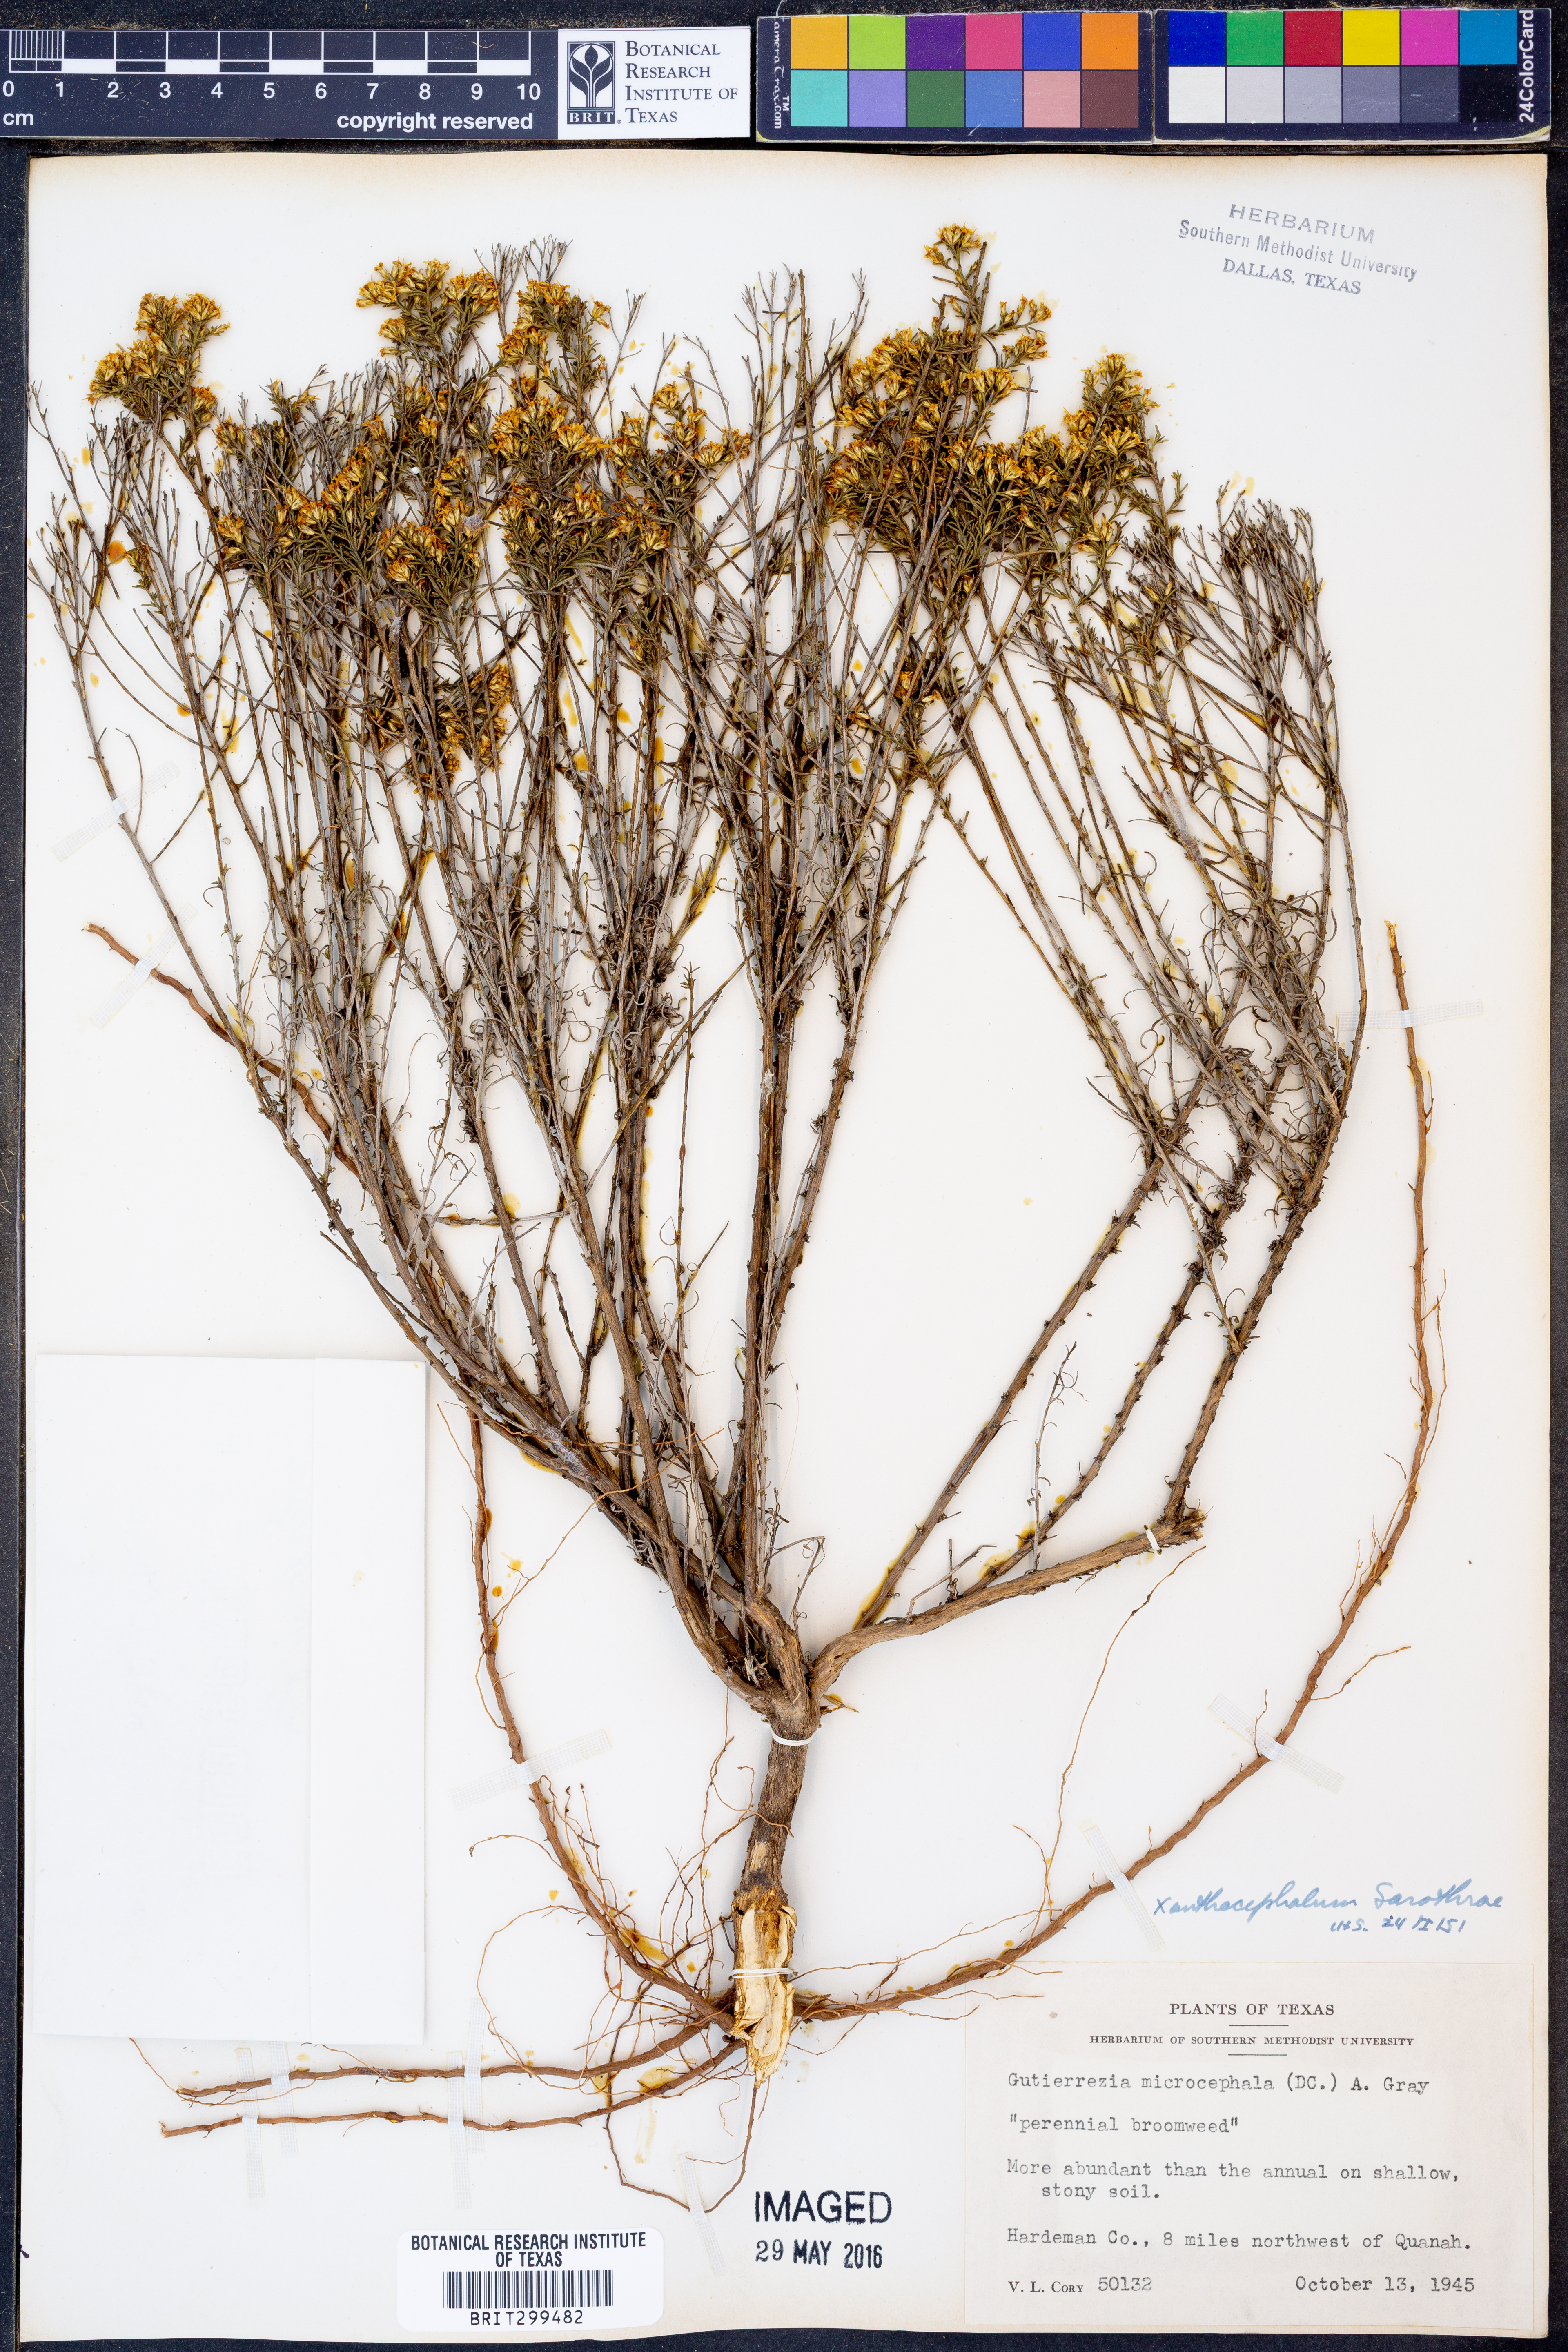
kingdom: Plantae
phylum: Tracheophyta
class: Magnoliopsida
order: Asterales
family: Asteraceae
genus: Gutierrezia
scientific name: Gutierrezia sarothrae
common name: Broom snakeweed
